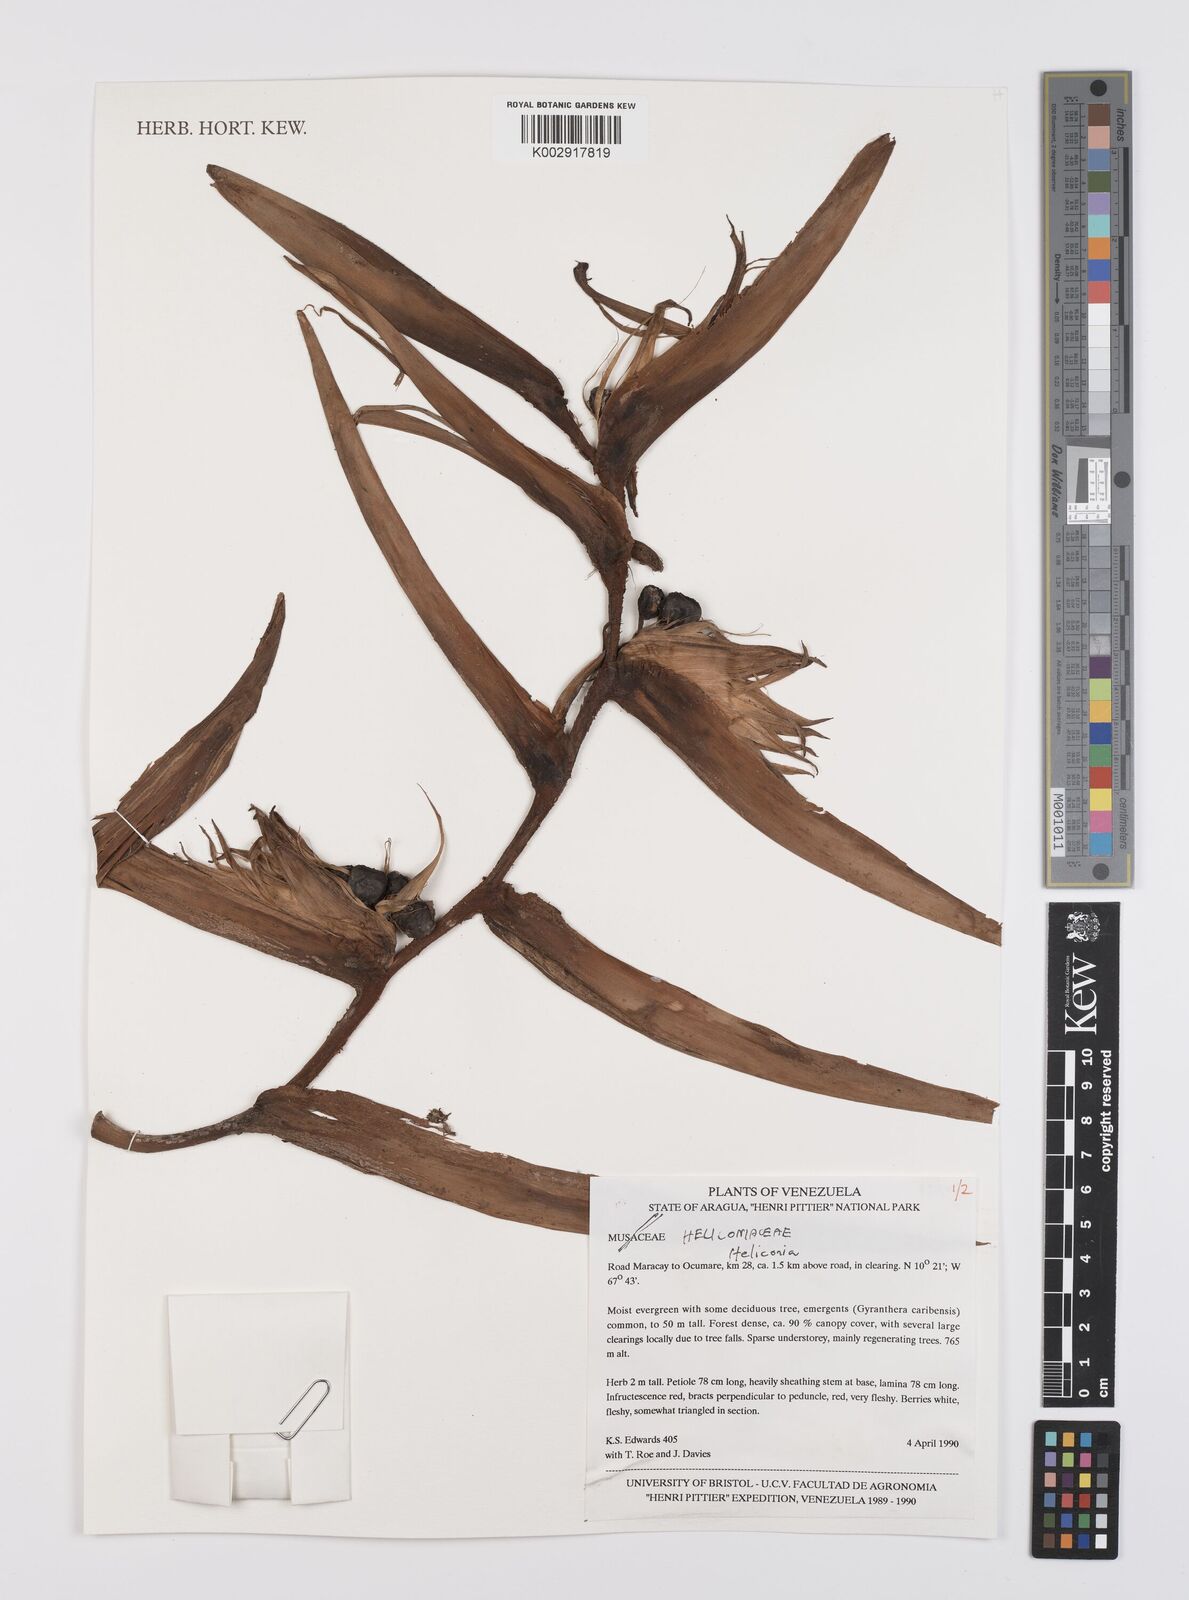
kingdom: Plantae
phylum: Tracheophyta
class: Liliopsida
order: Zingiberales
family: Heliconiaceae
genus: Heliconia
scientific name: Heliconia
